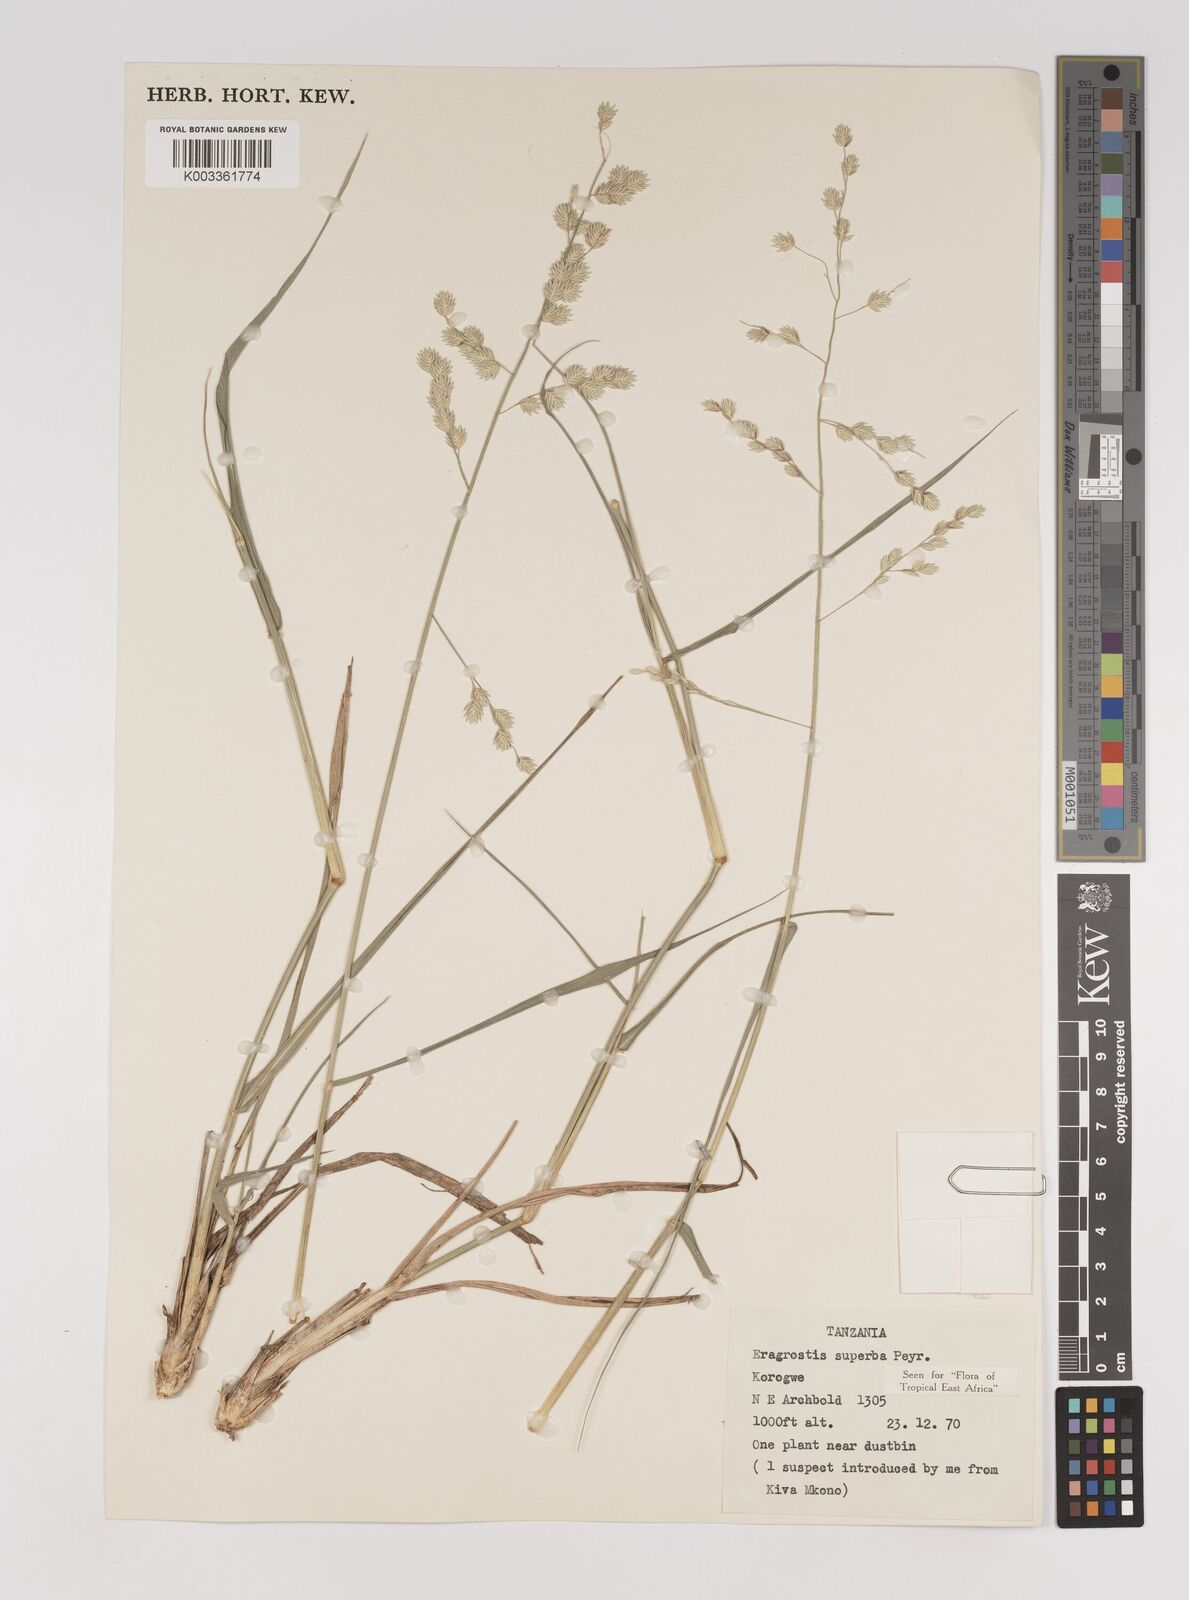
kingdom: Plantae
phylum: Tracheophyta
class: Liliopsida
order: Poales
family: Poaceae
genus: Eragrostis
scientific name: Eragrostis superba
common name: Wilman lovegrass
